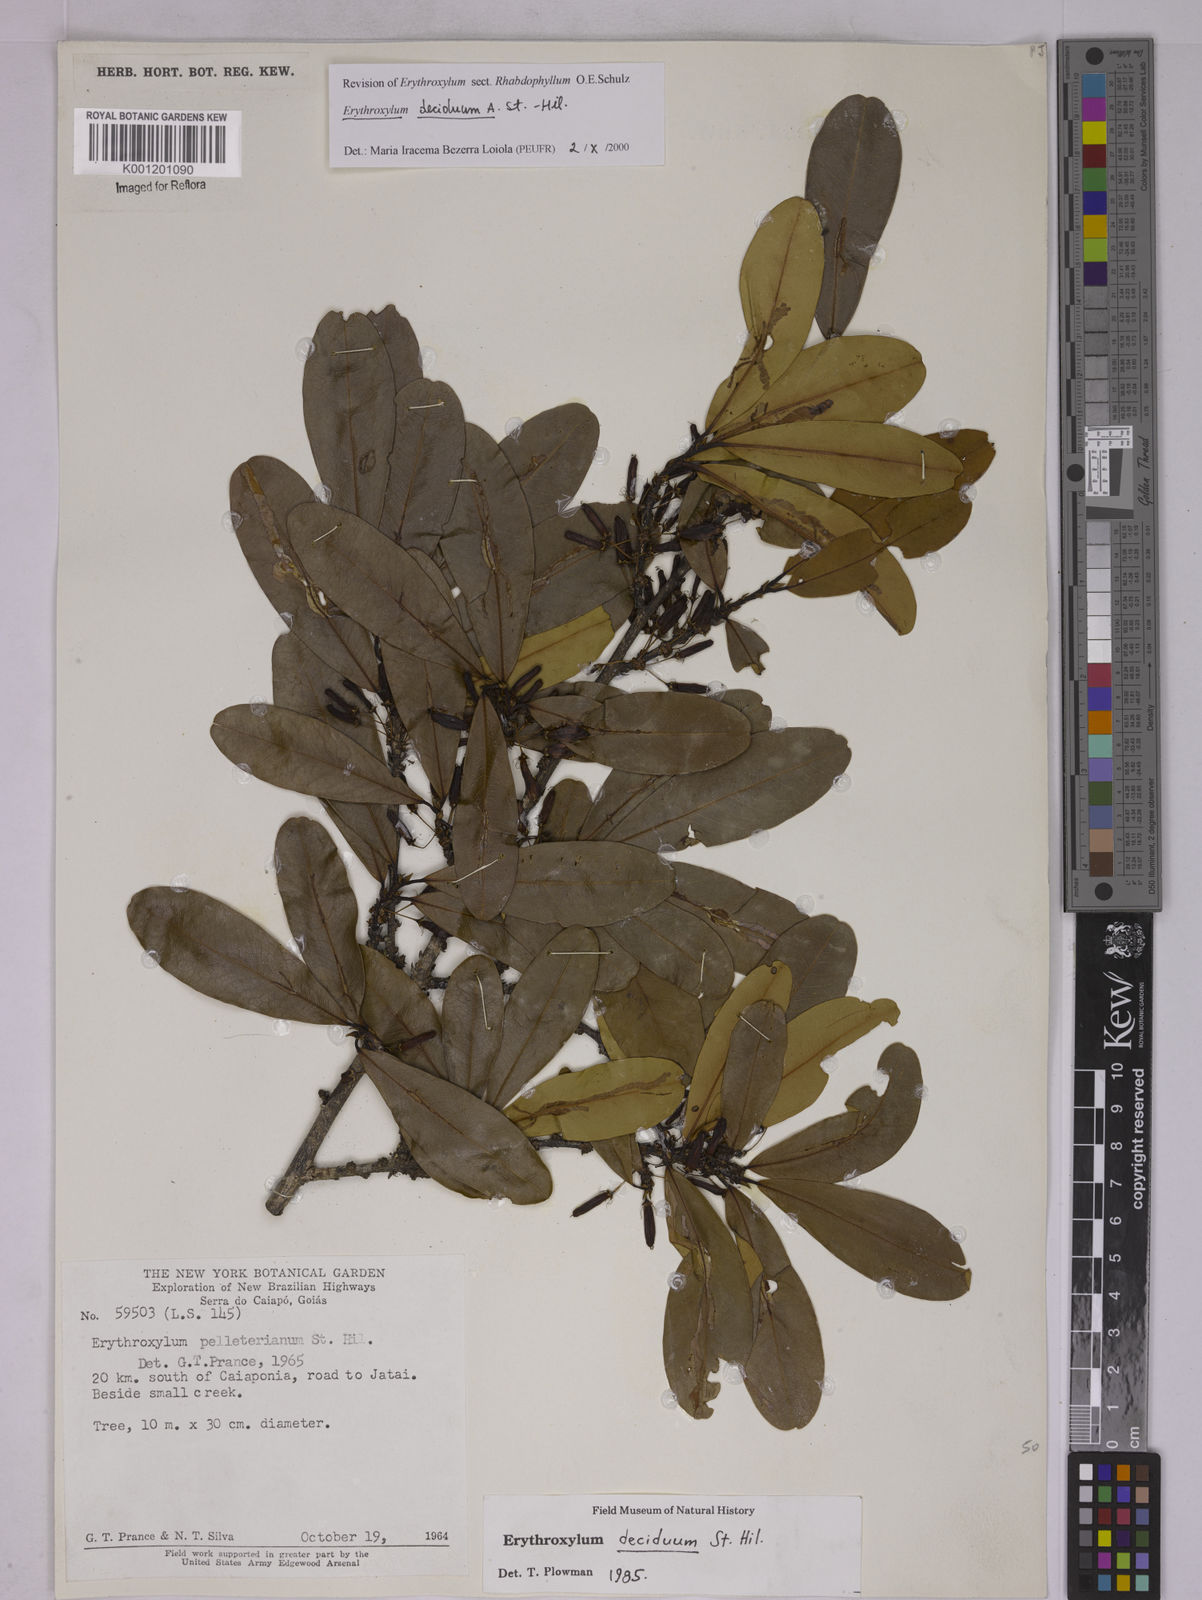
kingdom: Plantae
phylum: Tracheophyta
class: Magnoliopsida
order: Malpighiales
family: Erythroxylaceae
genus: Erythroxylum
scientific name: Erythroxylum deciduum
